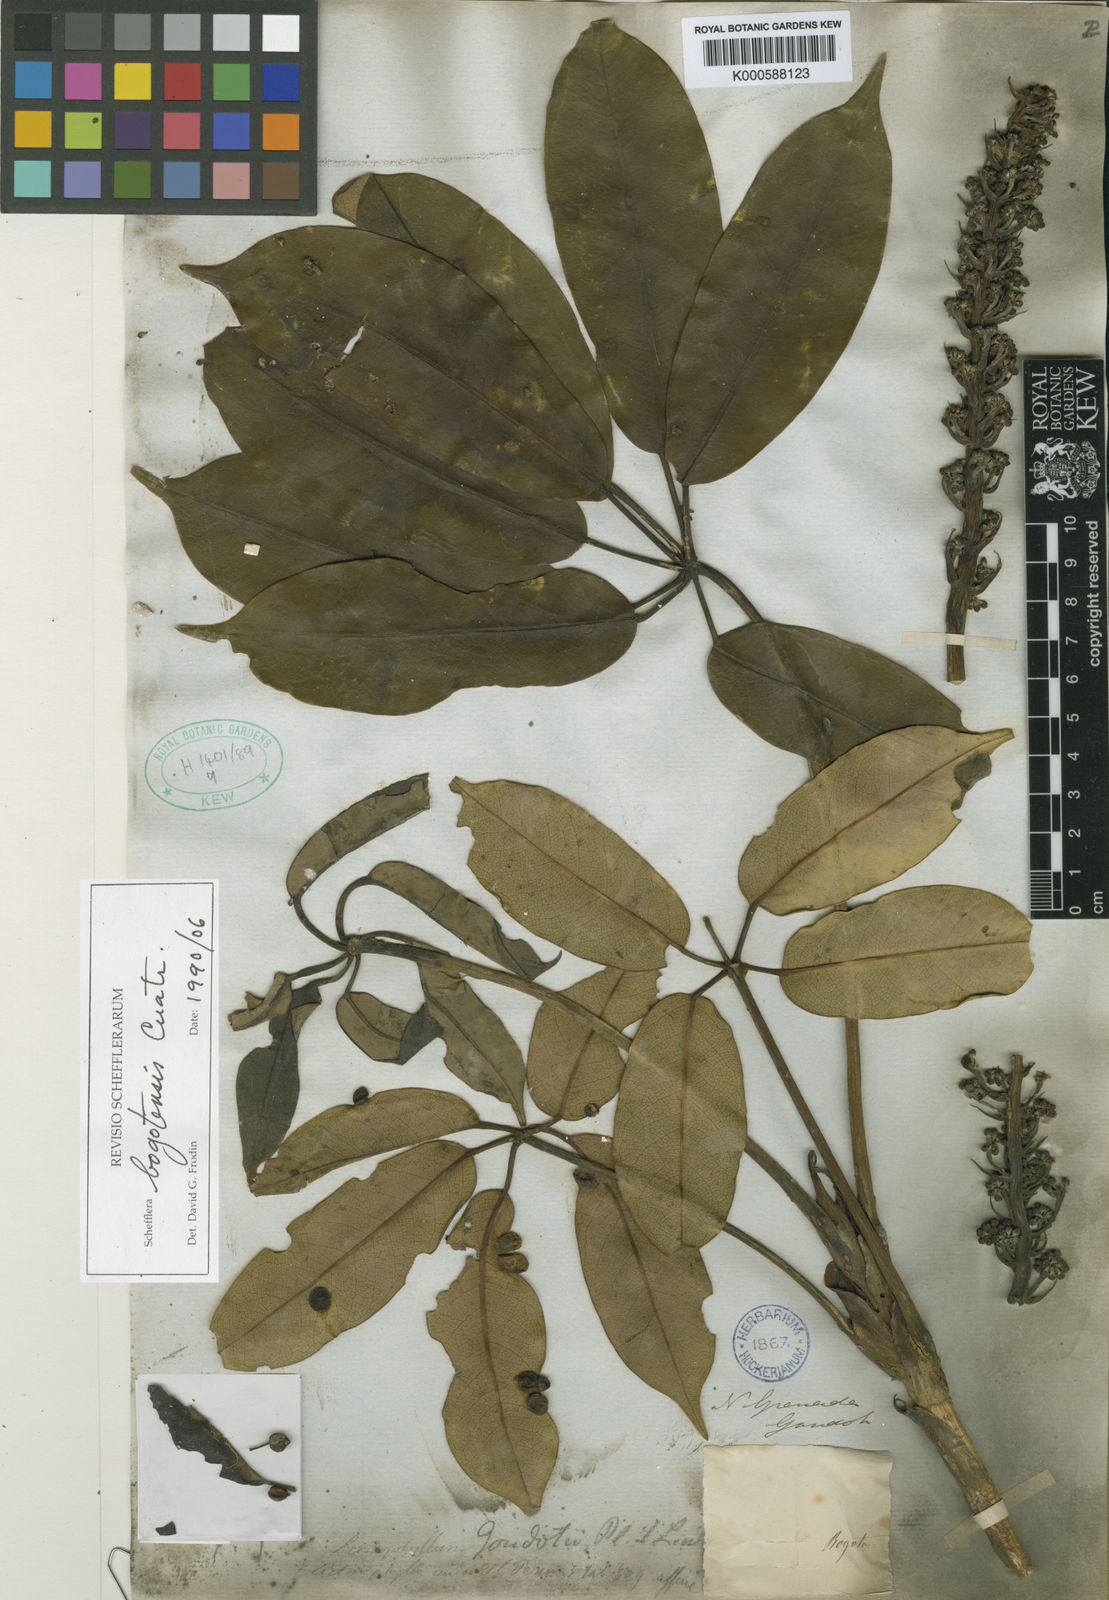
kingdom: Plantae
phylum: Tracheophyta
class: Magnoliopsida
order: Apiales
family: Araliaceae
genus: Sciodaphyllum
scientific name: Sciodaphyllum tamanum
